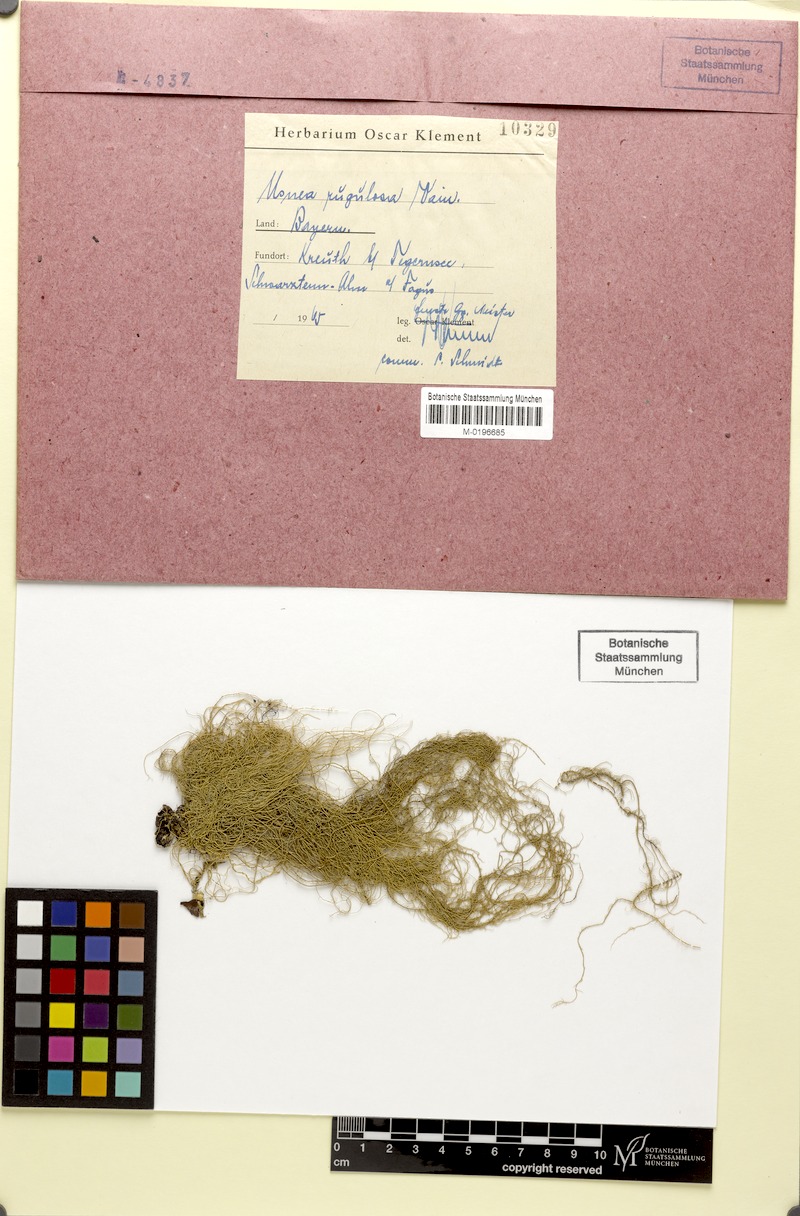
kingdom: Fungi
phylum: Ascomycota
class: Lecanoromycetes
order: Lecanorales
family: Parmeliaceae
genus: Usnea
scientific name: Usnea barbata
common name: Old man's beard lichen
